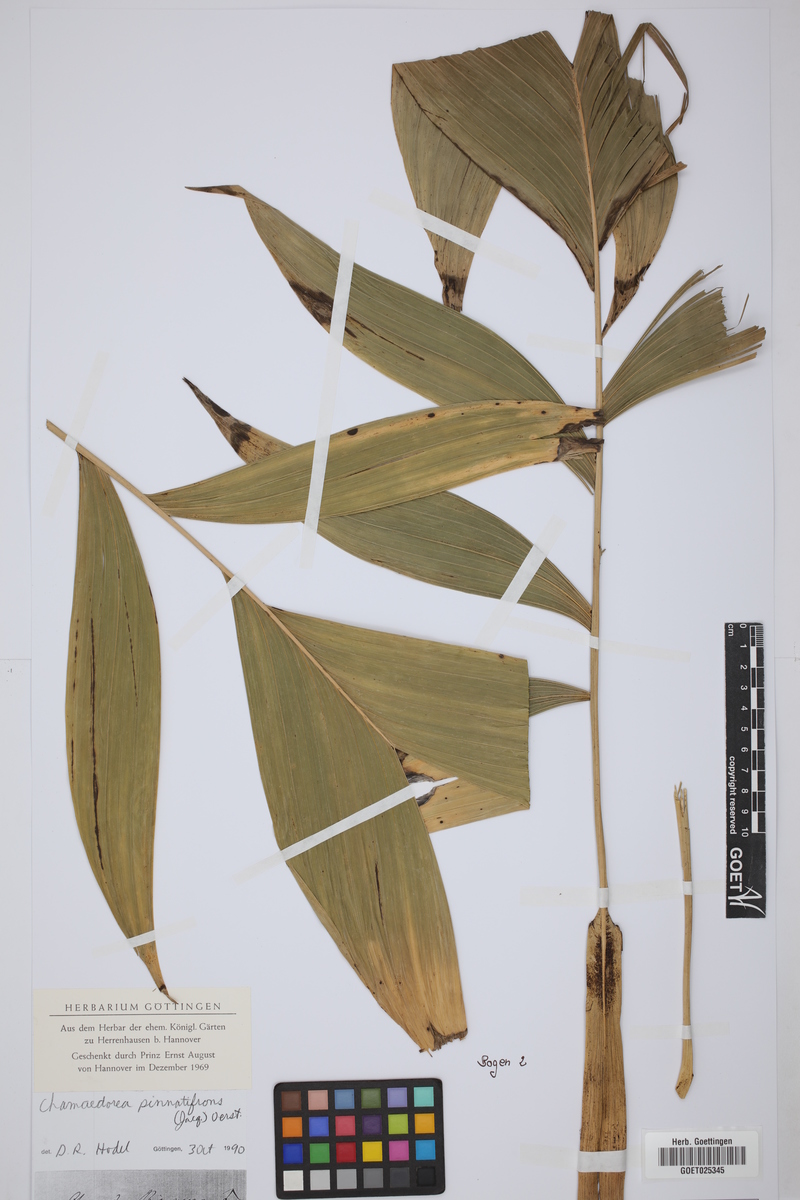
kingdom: Plantae
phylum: Tracheophyta
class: Liliopsida
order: Arecales
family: Arecaceae
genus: Chamaedorea
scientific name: Chamaedorea pinnatifrons
